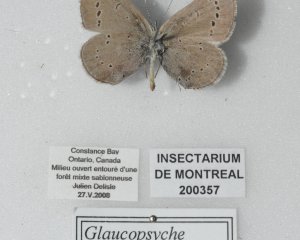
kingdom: Animalia
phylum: Arthropoda
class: Insecta
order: Lepidoptera
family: Lycaenidae
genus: Glaucopsyche
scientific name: Glaucopsyche lygdamus
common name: Silvery Blue
